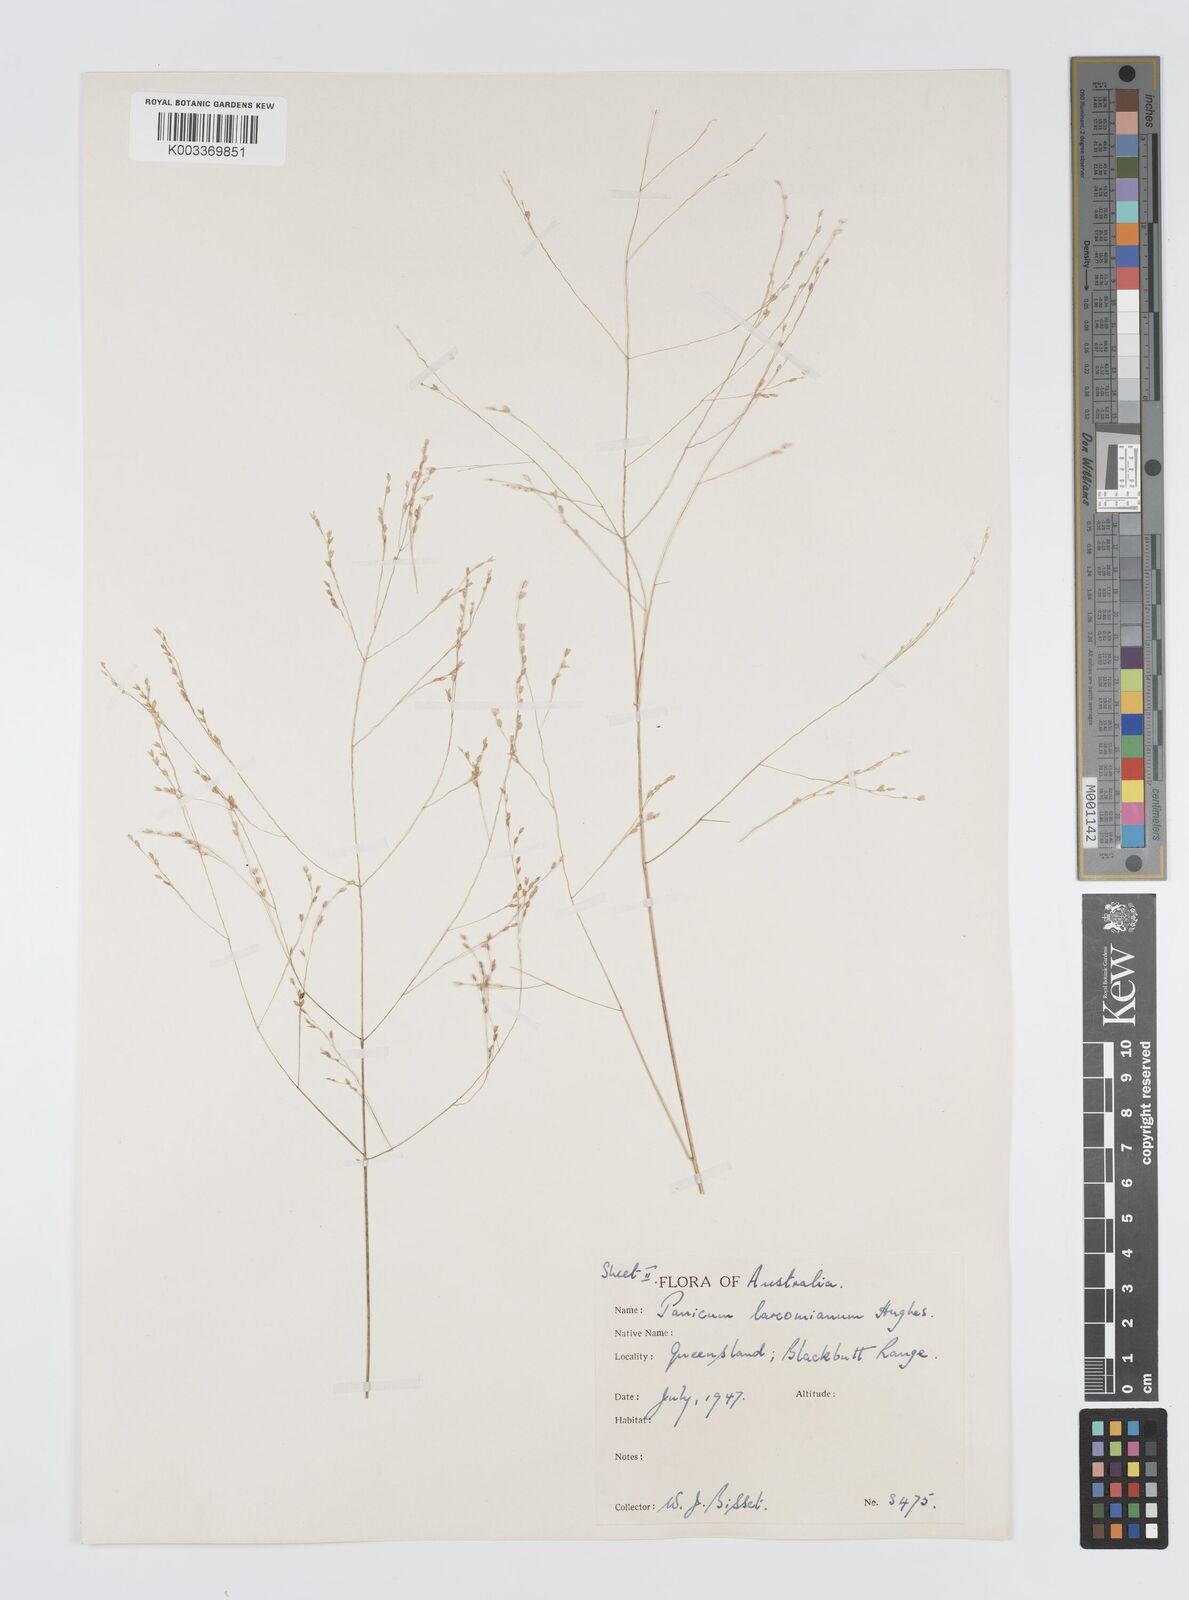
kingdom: Plantae
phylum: Tracheophyta
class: Liliopsida
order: Poales
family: Poaceae
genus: Panicum
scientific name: Panicum larcomianum
